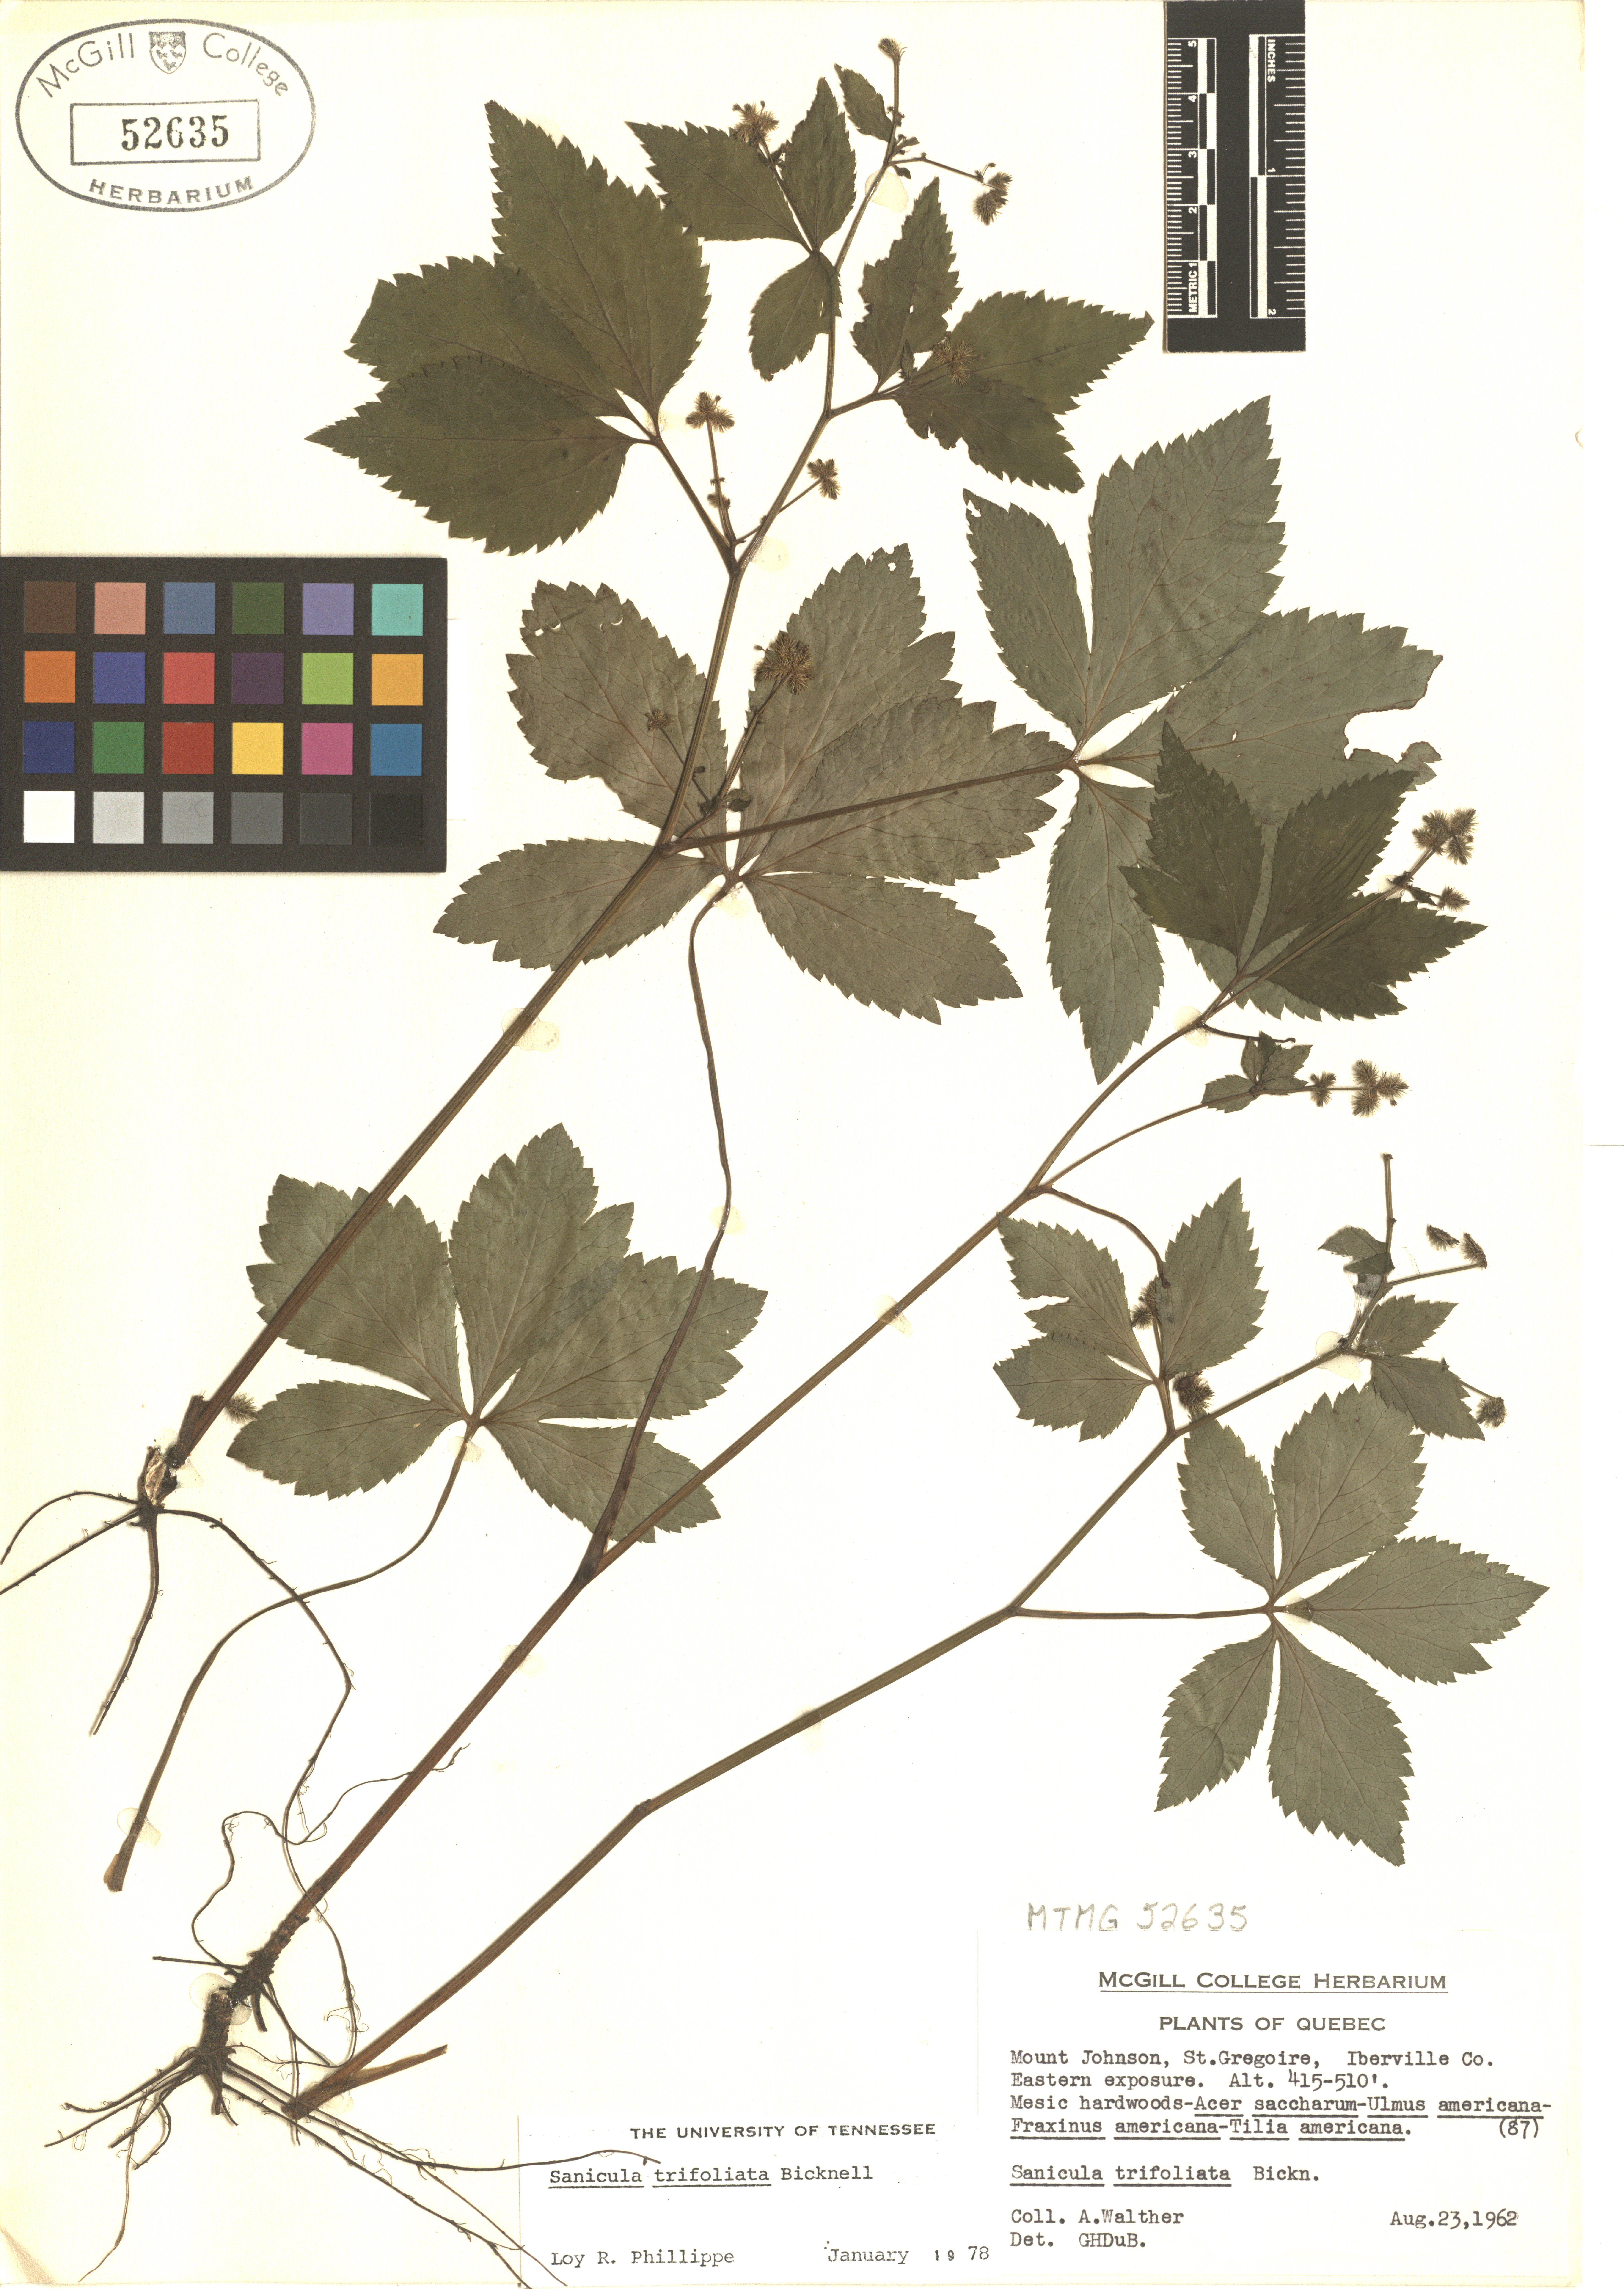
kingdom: Plantae
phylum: Tracheophyta
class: Magnoliopsida
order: Apiales
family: Apiaceae
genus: Sanicula
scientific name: Sanicula trifoliata
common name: Beaked sanicle
